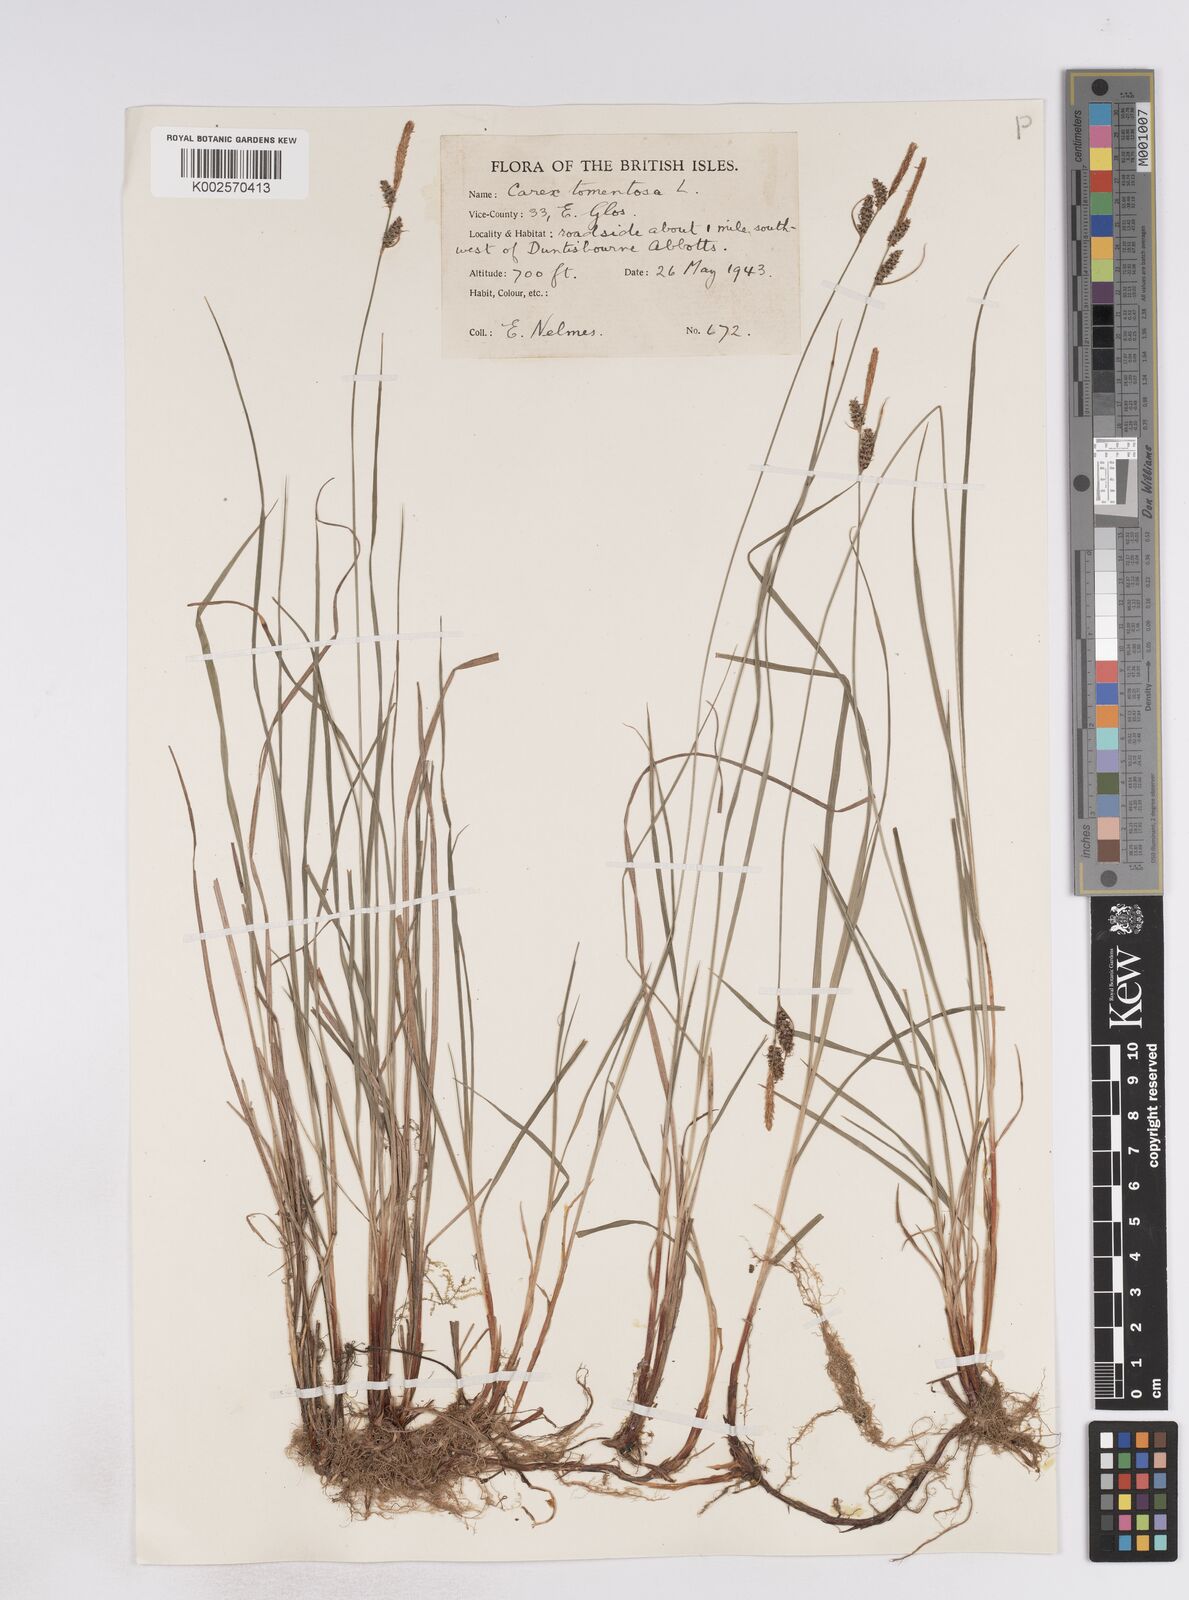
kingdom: Plantae
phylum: Tracheophyta
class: Liliopsida
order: Poales
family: Cyperaceae
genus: Carex
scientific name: Carex montana
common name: Soft-leaved sedge
